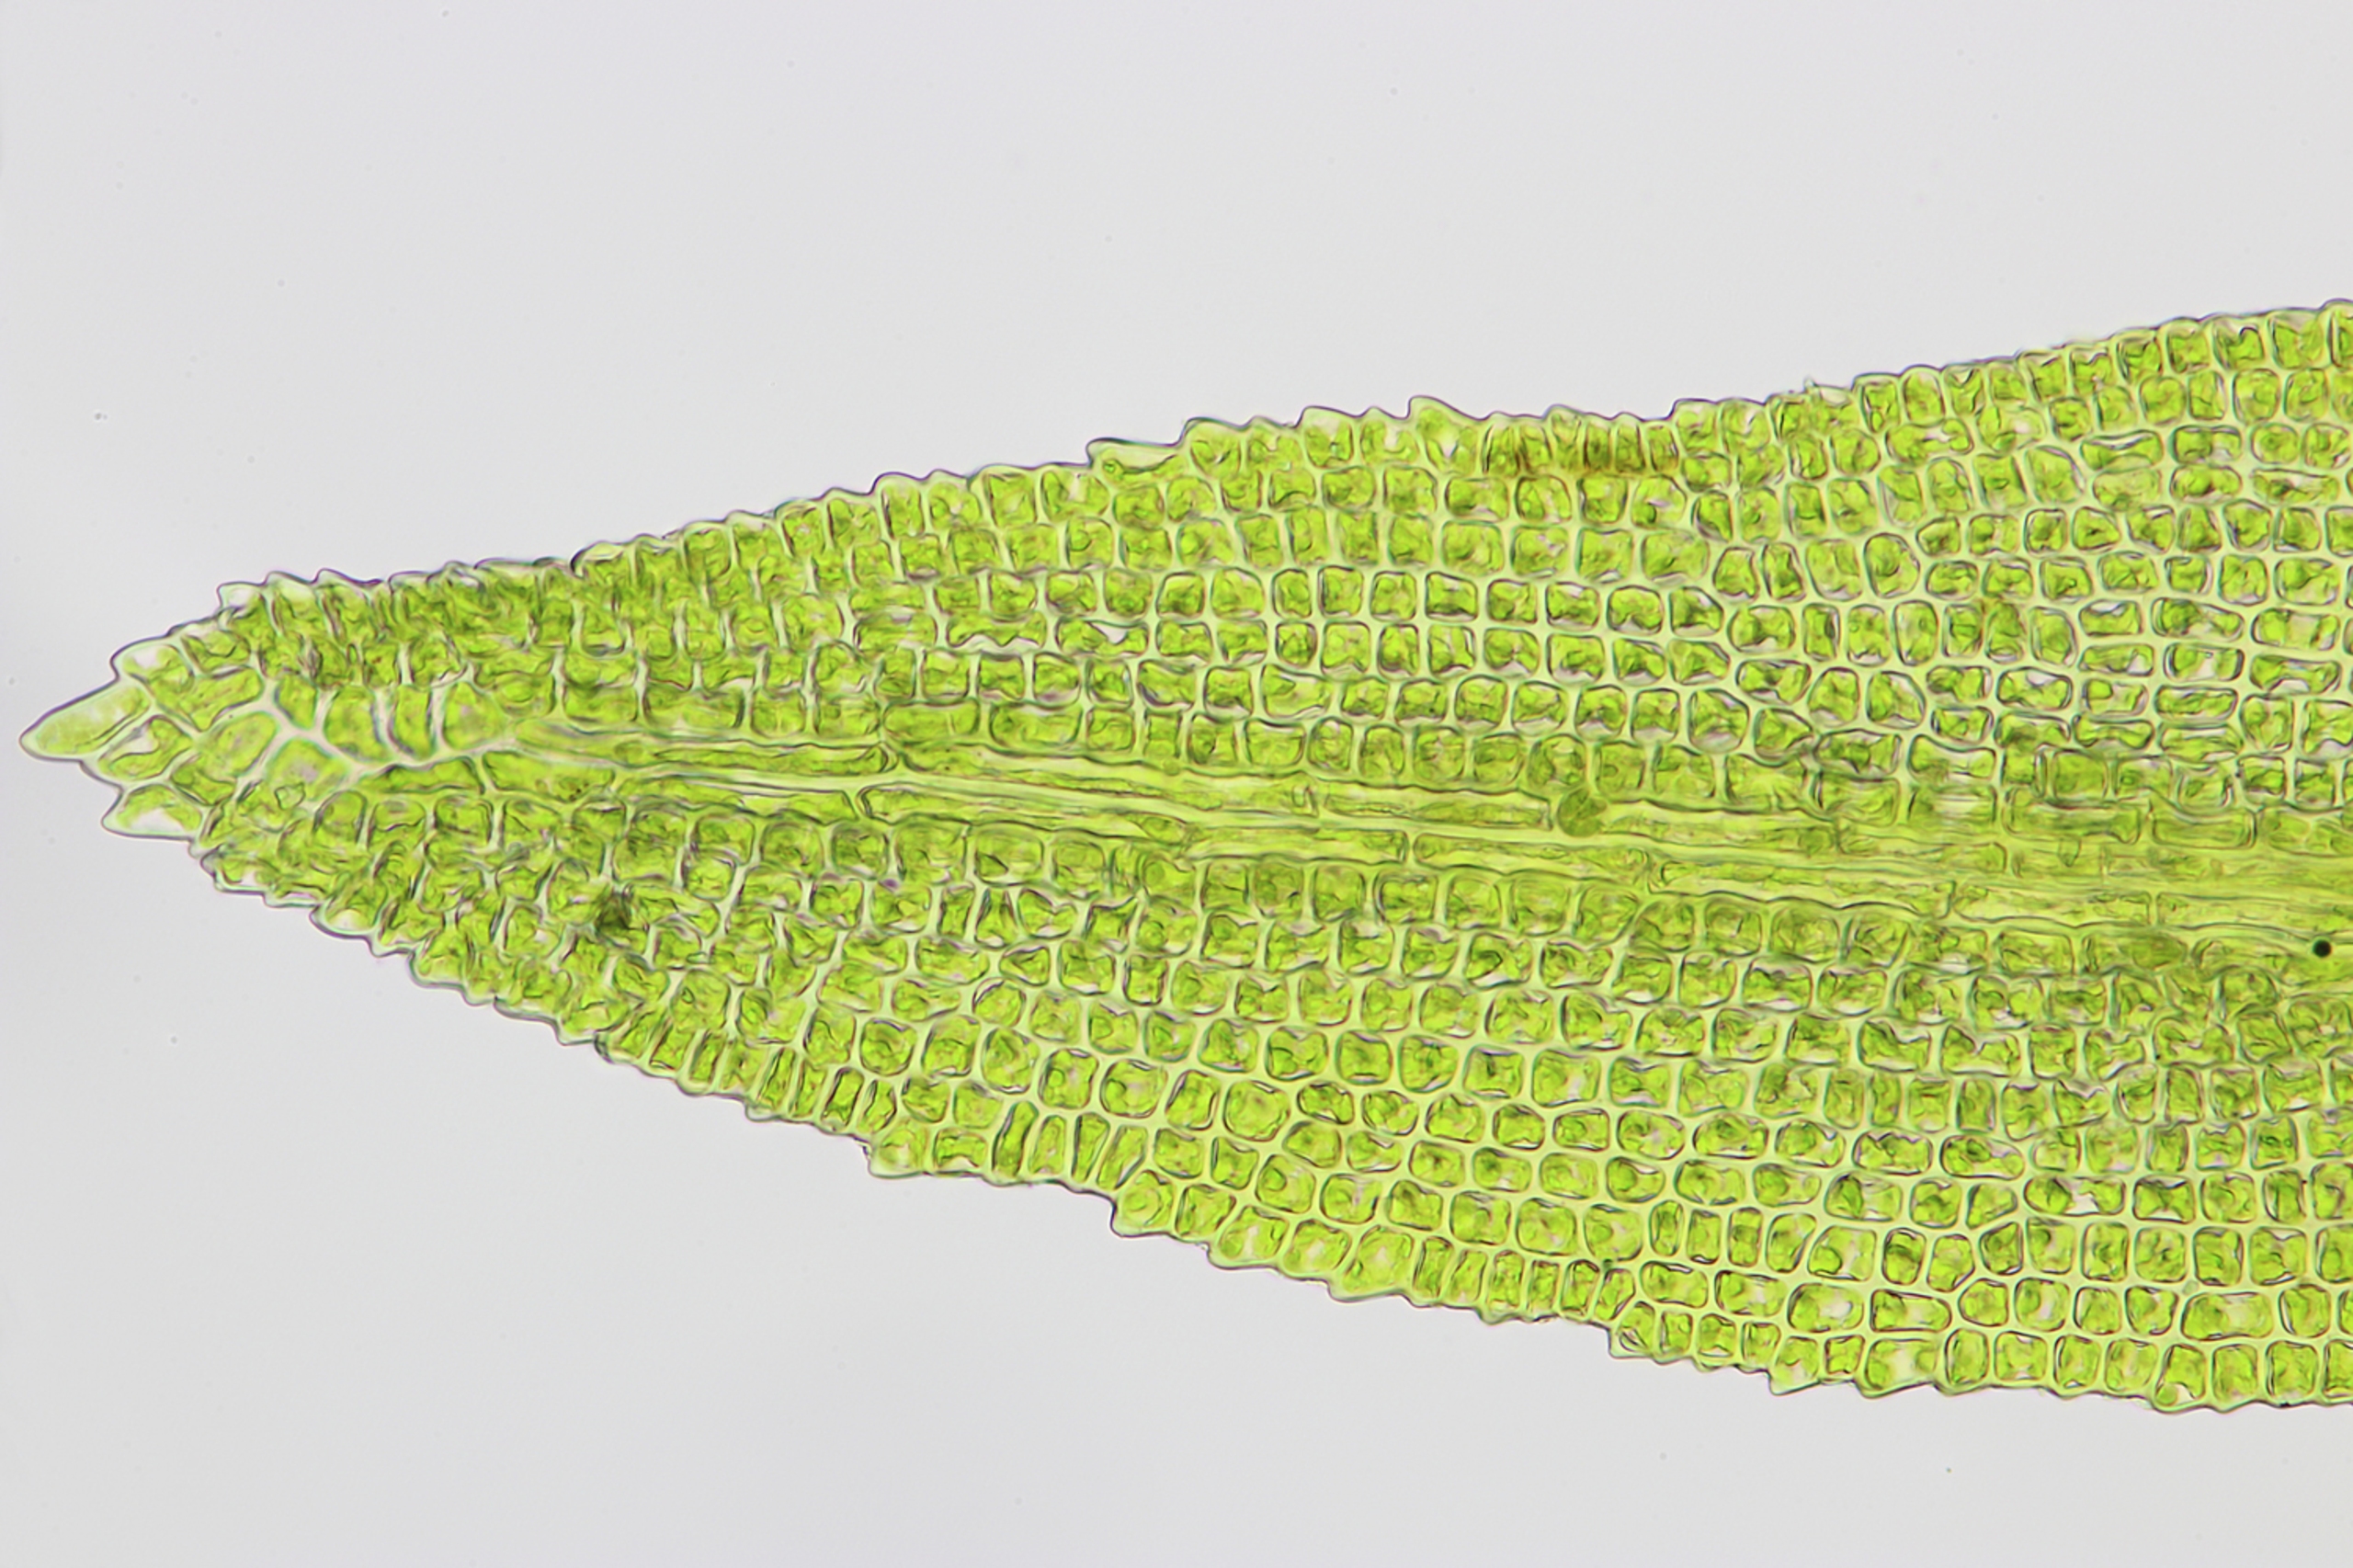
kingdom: Plantae
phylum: Bryophyta
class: Bryopsida
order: Dicranales
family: Aongstroemiaceae
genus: Dichodontium
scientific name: Dichodontium pellucidum
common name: Mamilløs bredtand
